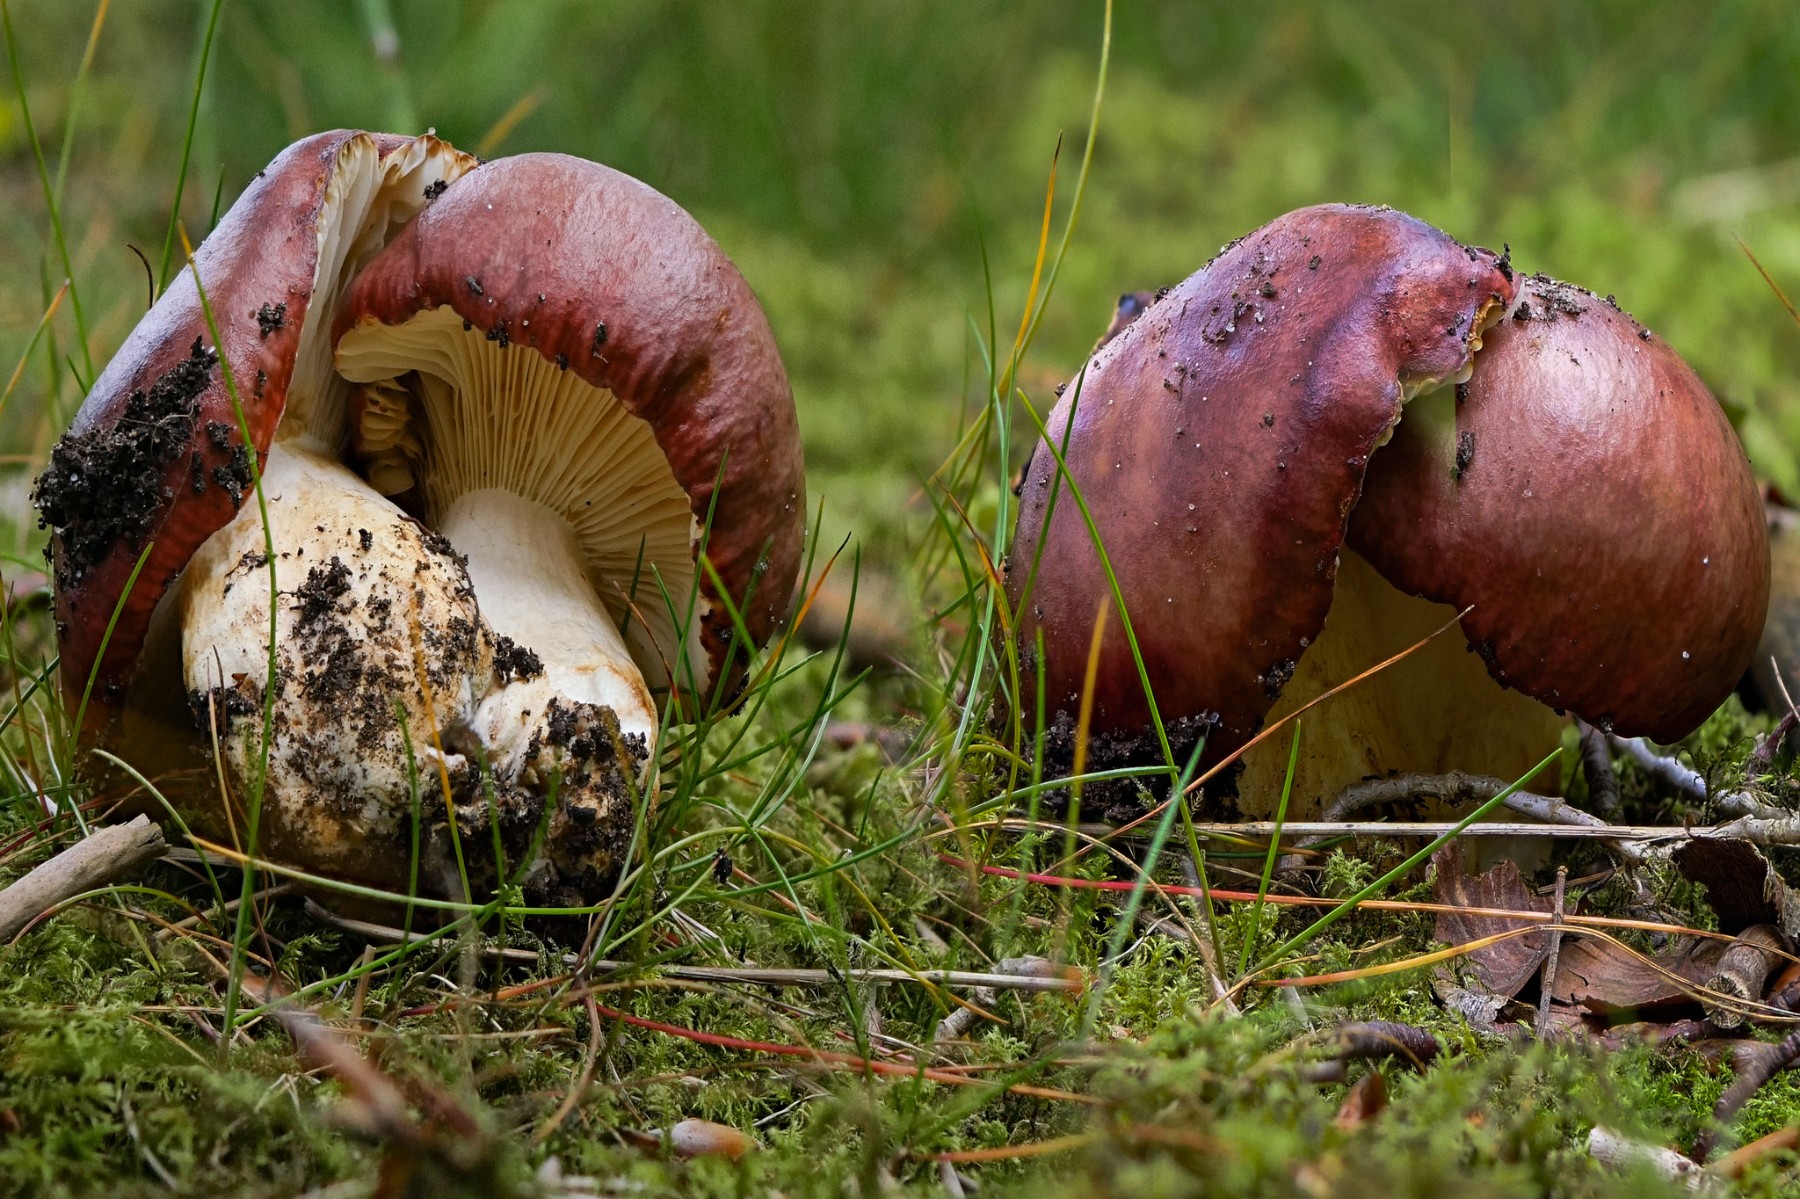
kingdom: Fungi
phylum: Basidiomycota
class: Agaricomycetes
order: Russulales
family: Russulaceae
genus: Russula
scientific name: Russula viscida
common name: knippe-skørhat
